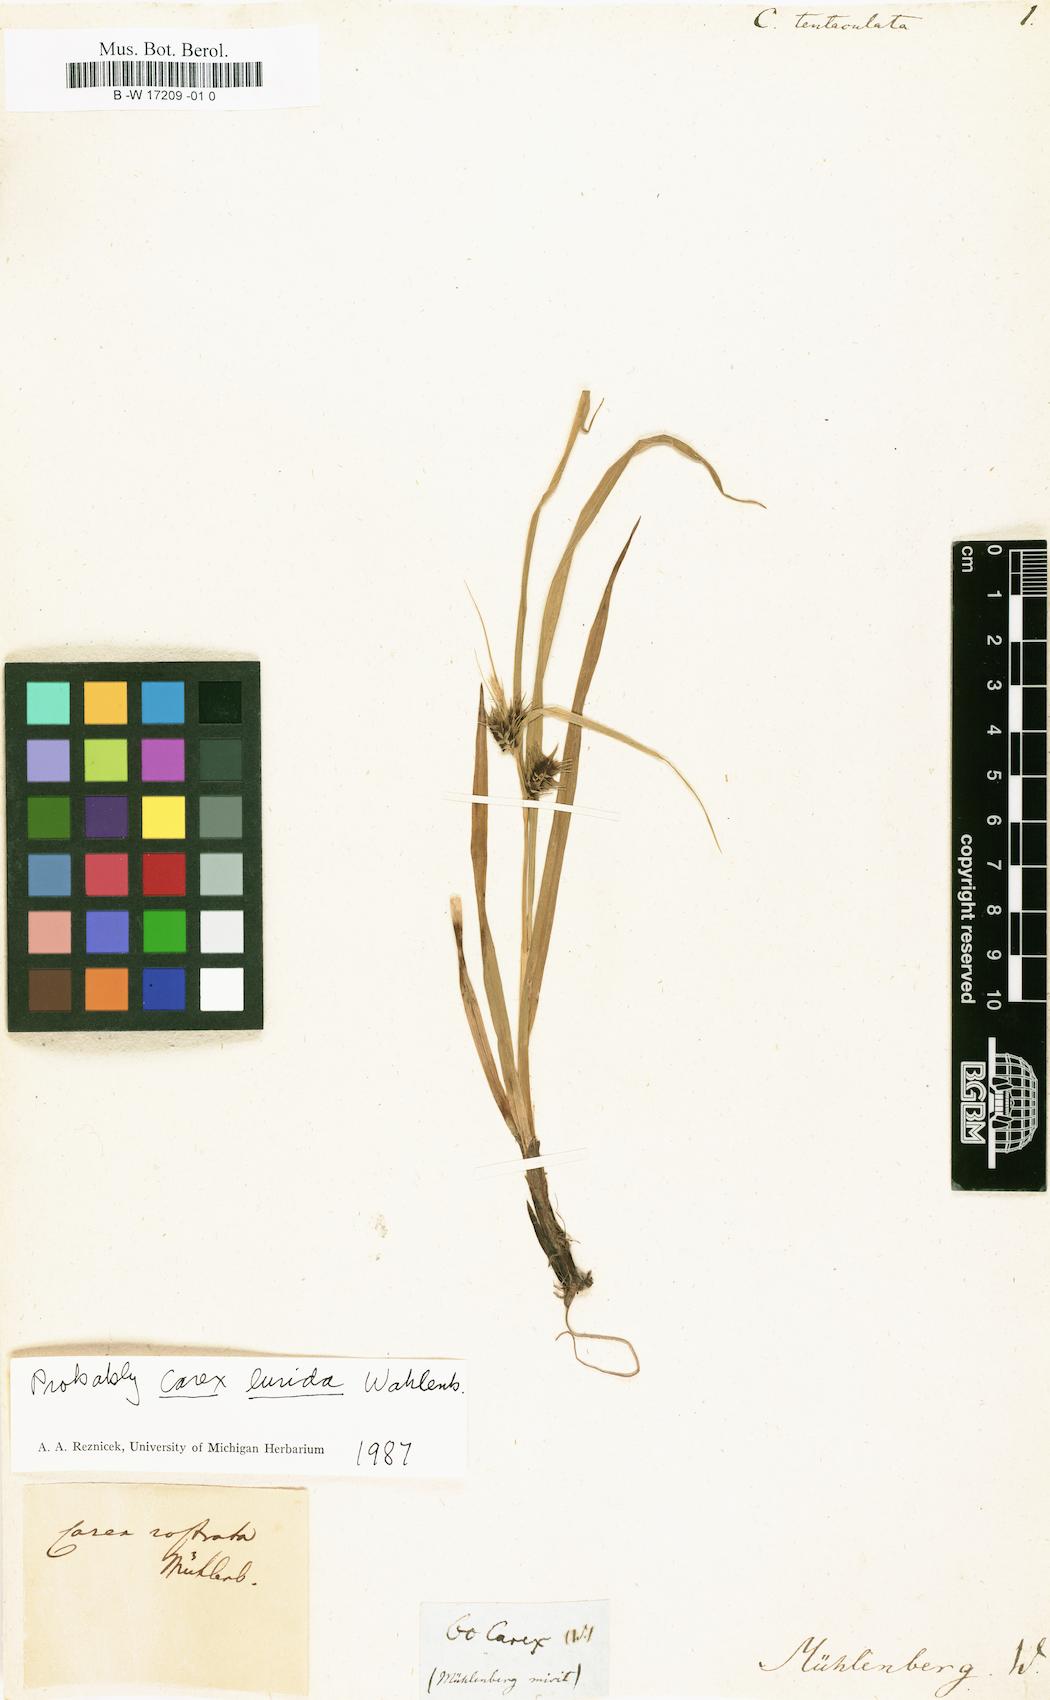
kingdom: Plantae
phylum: Tracheophyta
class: Liliopsida
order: Poales
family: Cyperaceae
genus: Carex
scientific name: Carex lurida
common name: Sallow sedge
